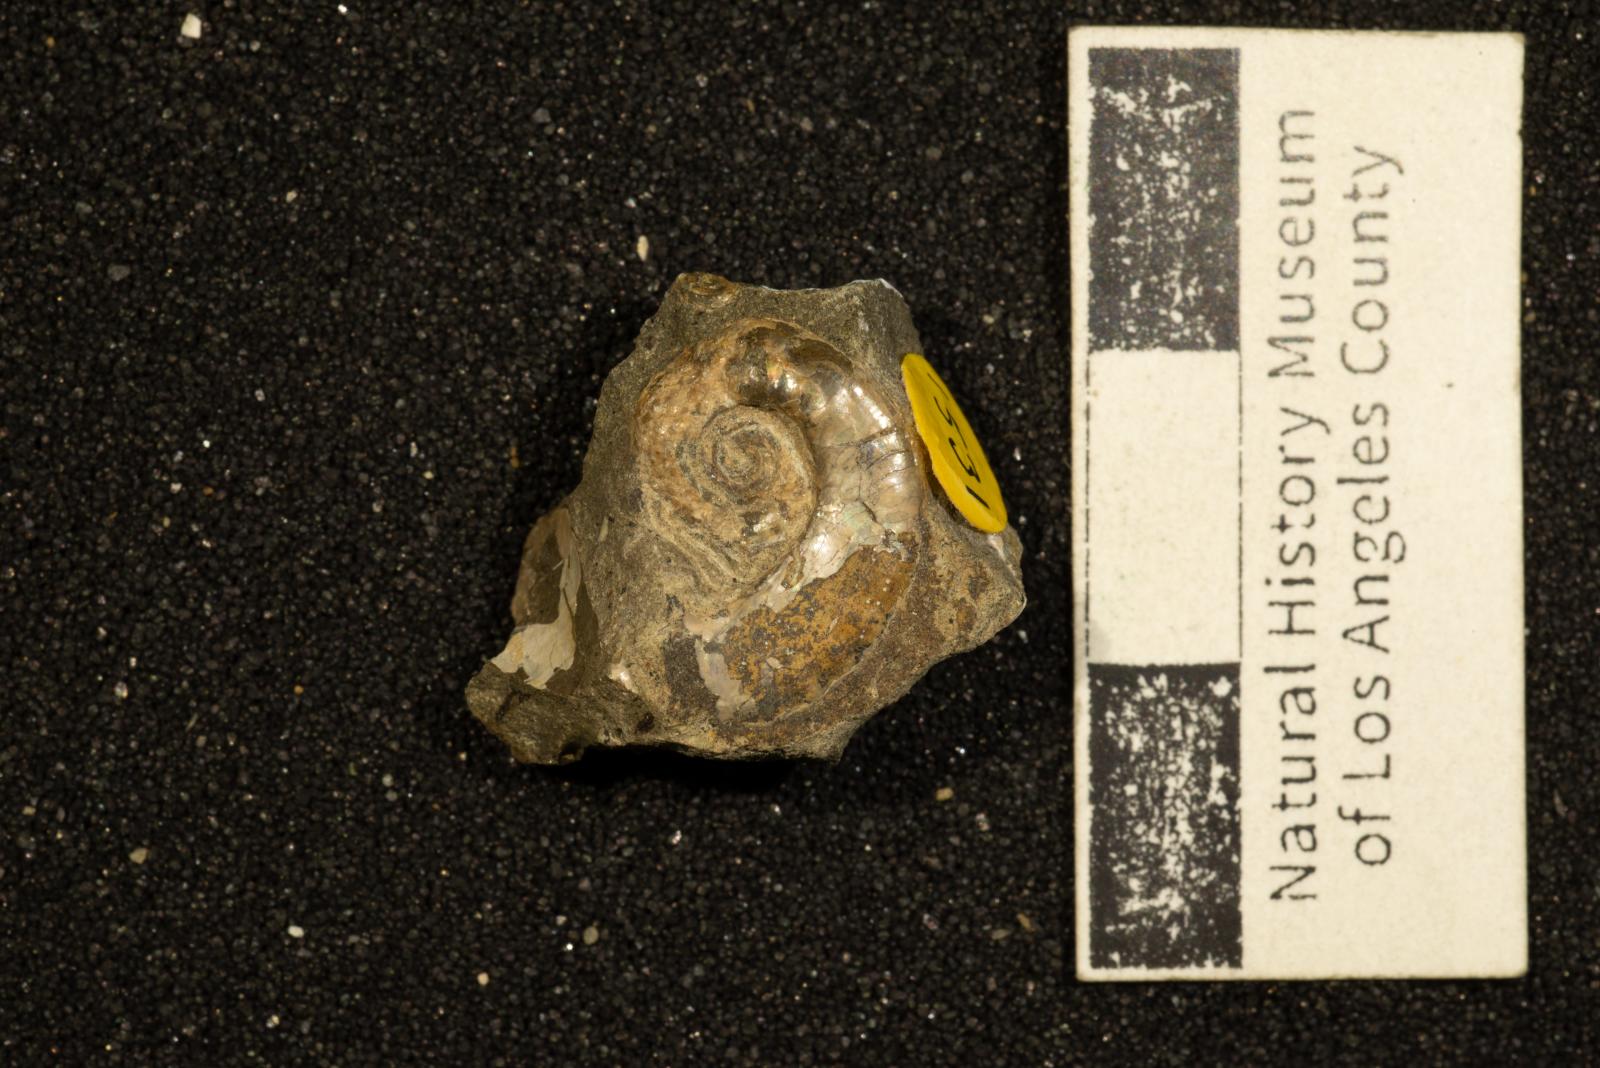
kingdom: Animalia
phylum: Mollusca
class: Cephalopoda
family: Scaphitidae
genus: Yezoites
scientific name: Yezoites
